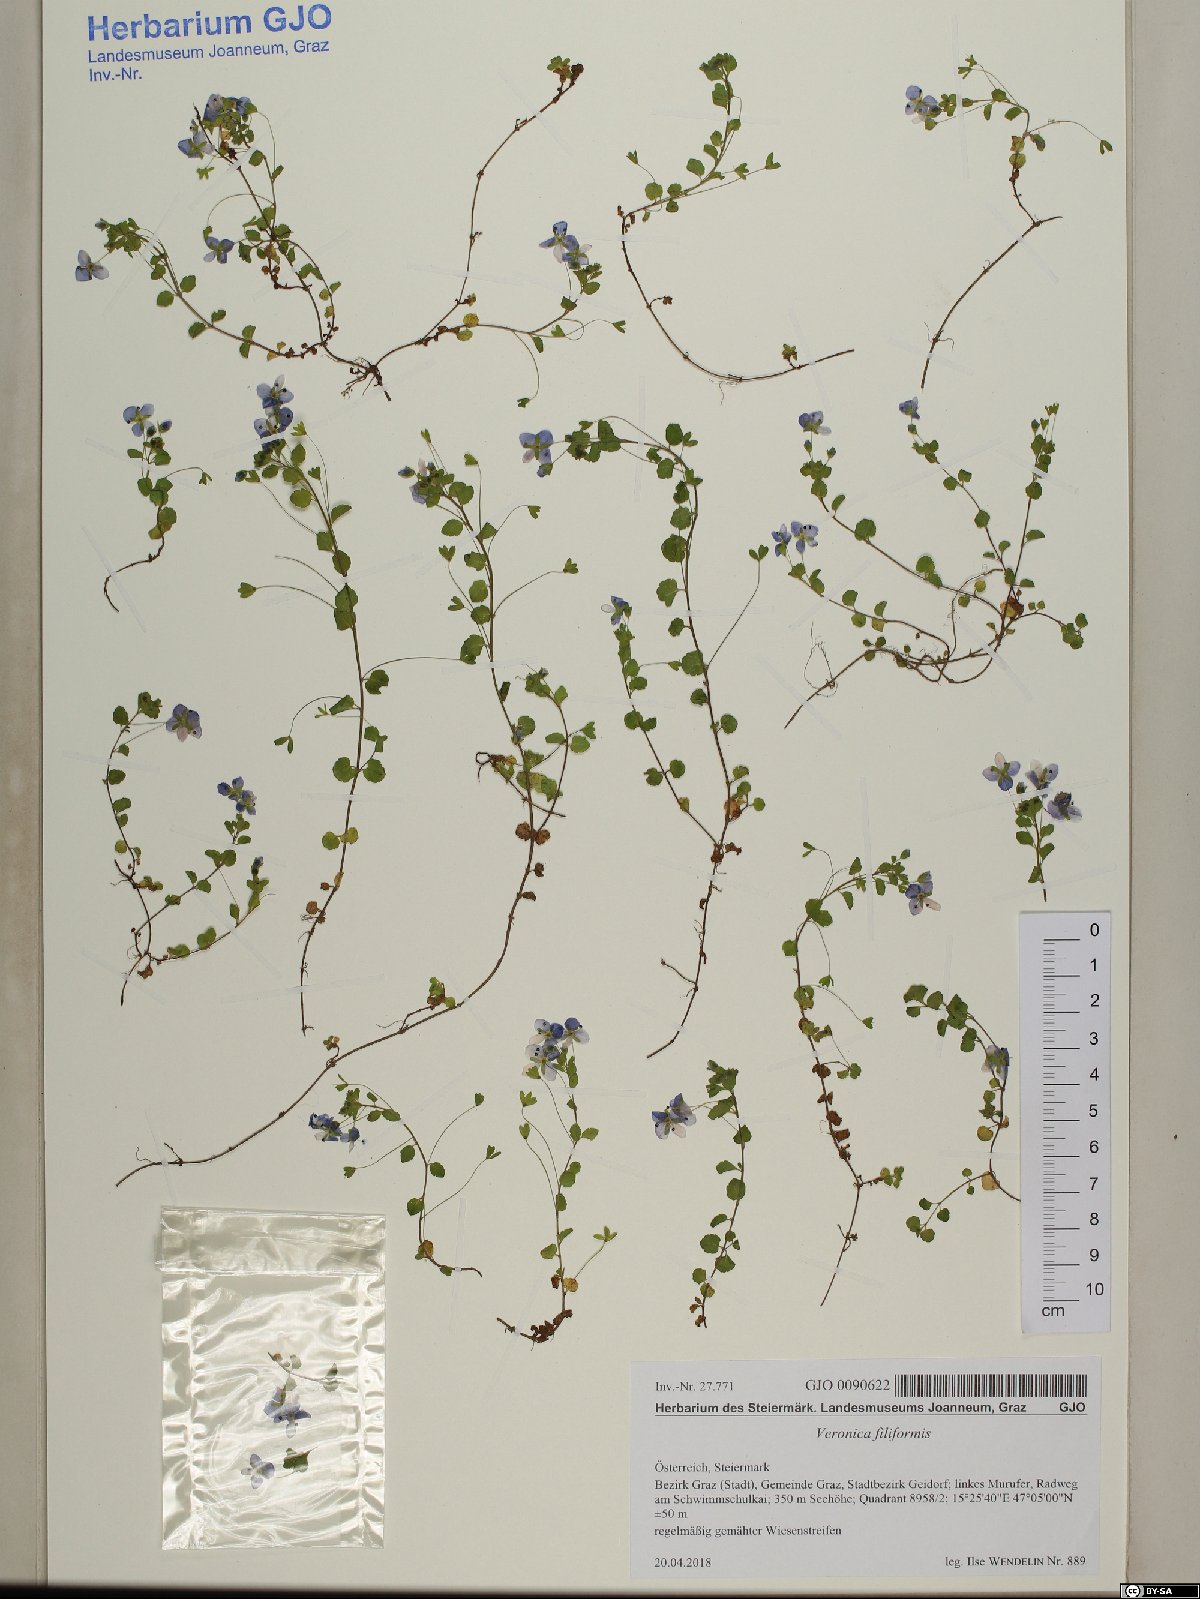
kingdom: Plantae
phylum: Tracheophyta
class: Magnoliopsida
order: Lamiales
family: Plantaginaceae
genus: Veronica
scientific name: Veronica filiformis
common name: Slender speedwell
